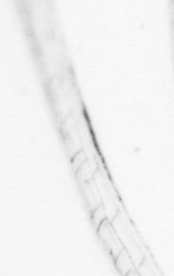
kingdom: Animalia
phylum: Chordata
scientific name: Chordata
